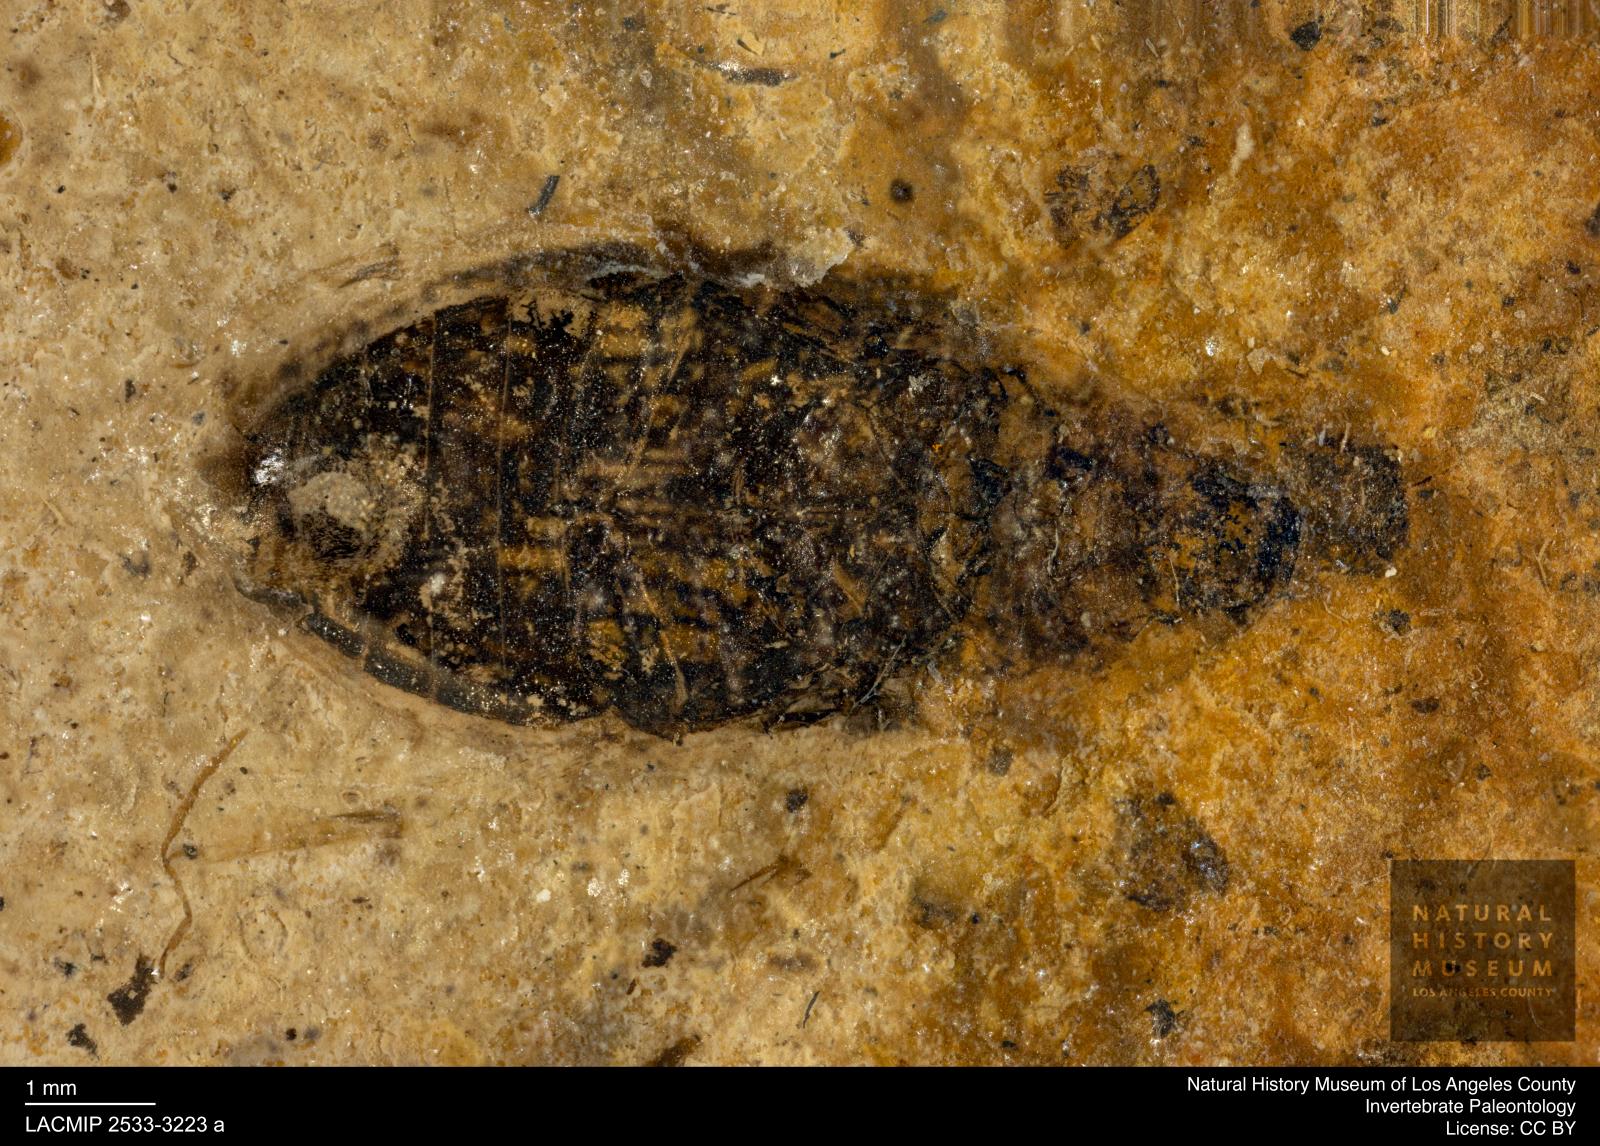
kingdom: Animalia
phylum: Arthropoda
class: Insecta
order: Coleoptera
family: Hydrophilidae
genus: Berosus
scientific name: Berosus morticinus
